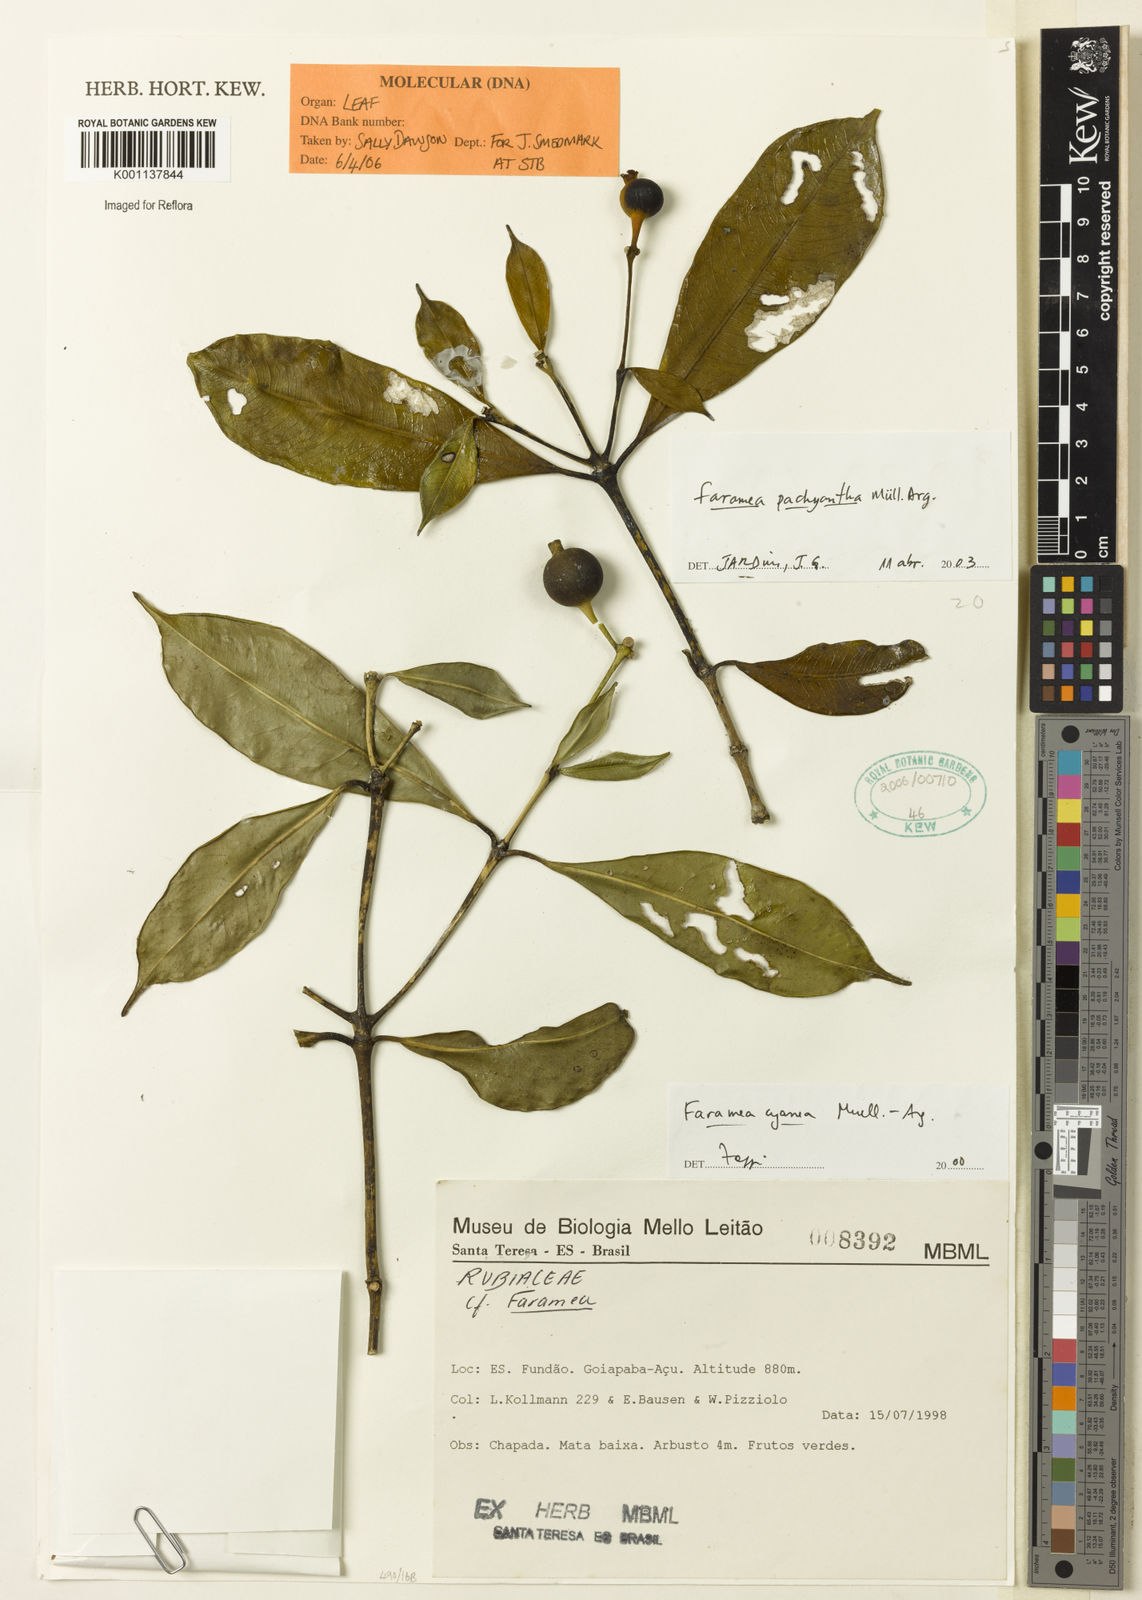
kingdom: Plantae
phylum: Tracheophyta
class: Magnoliopsida
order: Gentianales
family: Rubiaceae
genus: Faramea
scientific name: Faramea
